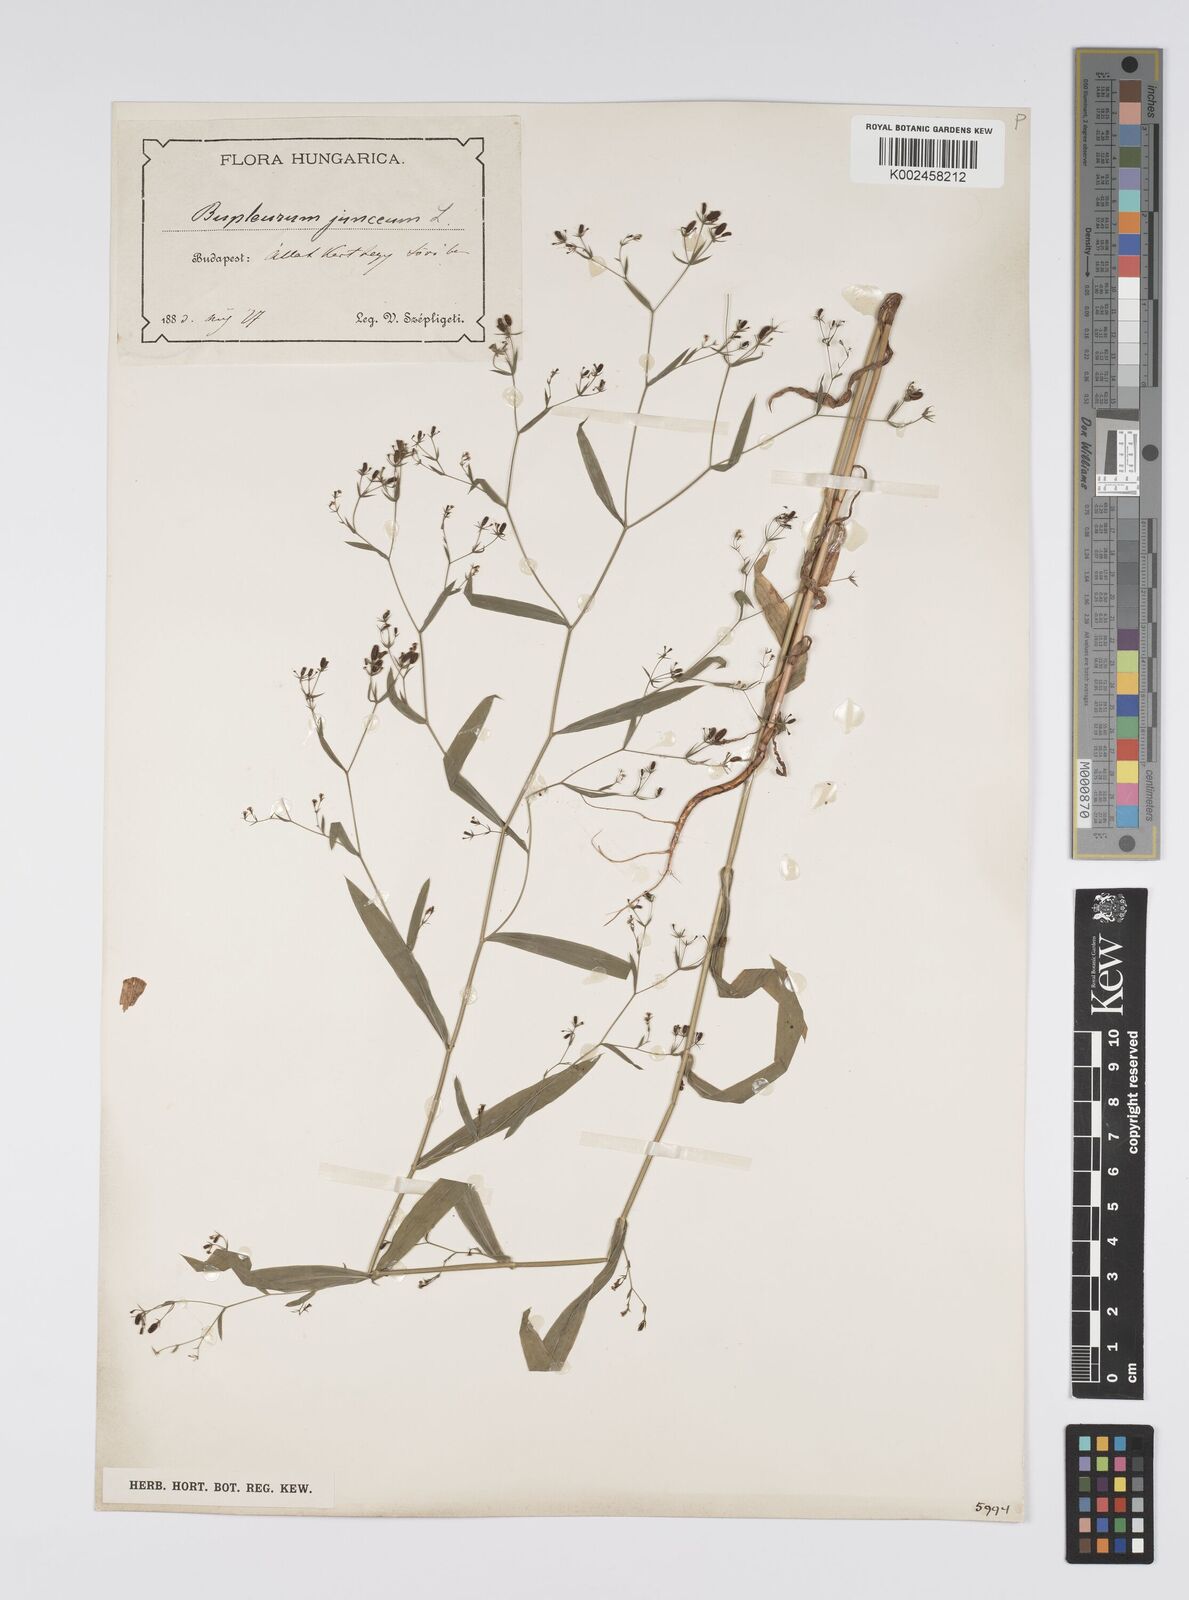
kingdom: Plantae
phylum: Tracheophyta
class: Magnoliopsida
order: Apiales
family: Apiaceae
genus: Bupleurum
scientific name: Bupleurum praealtum
